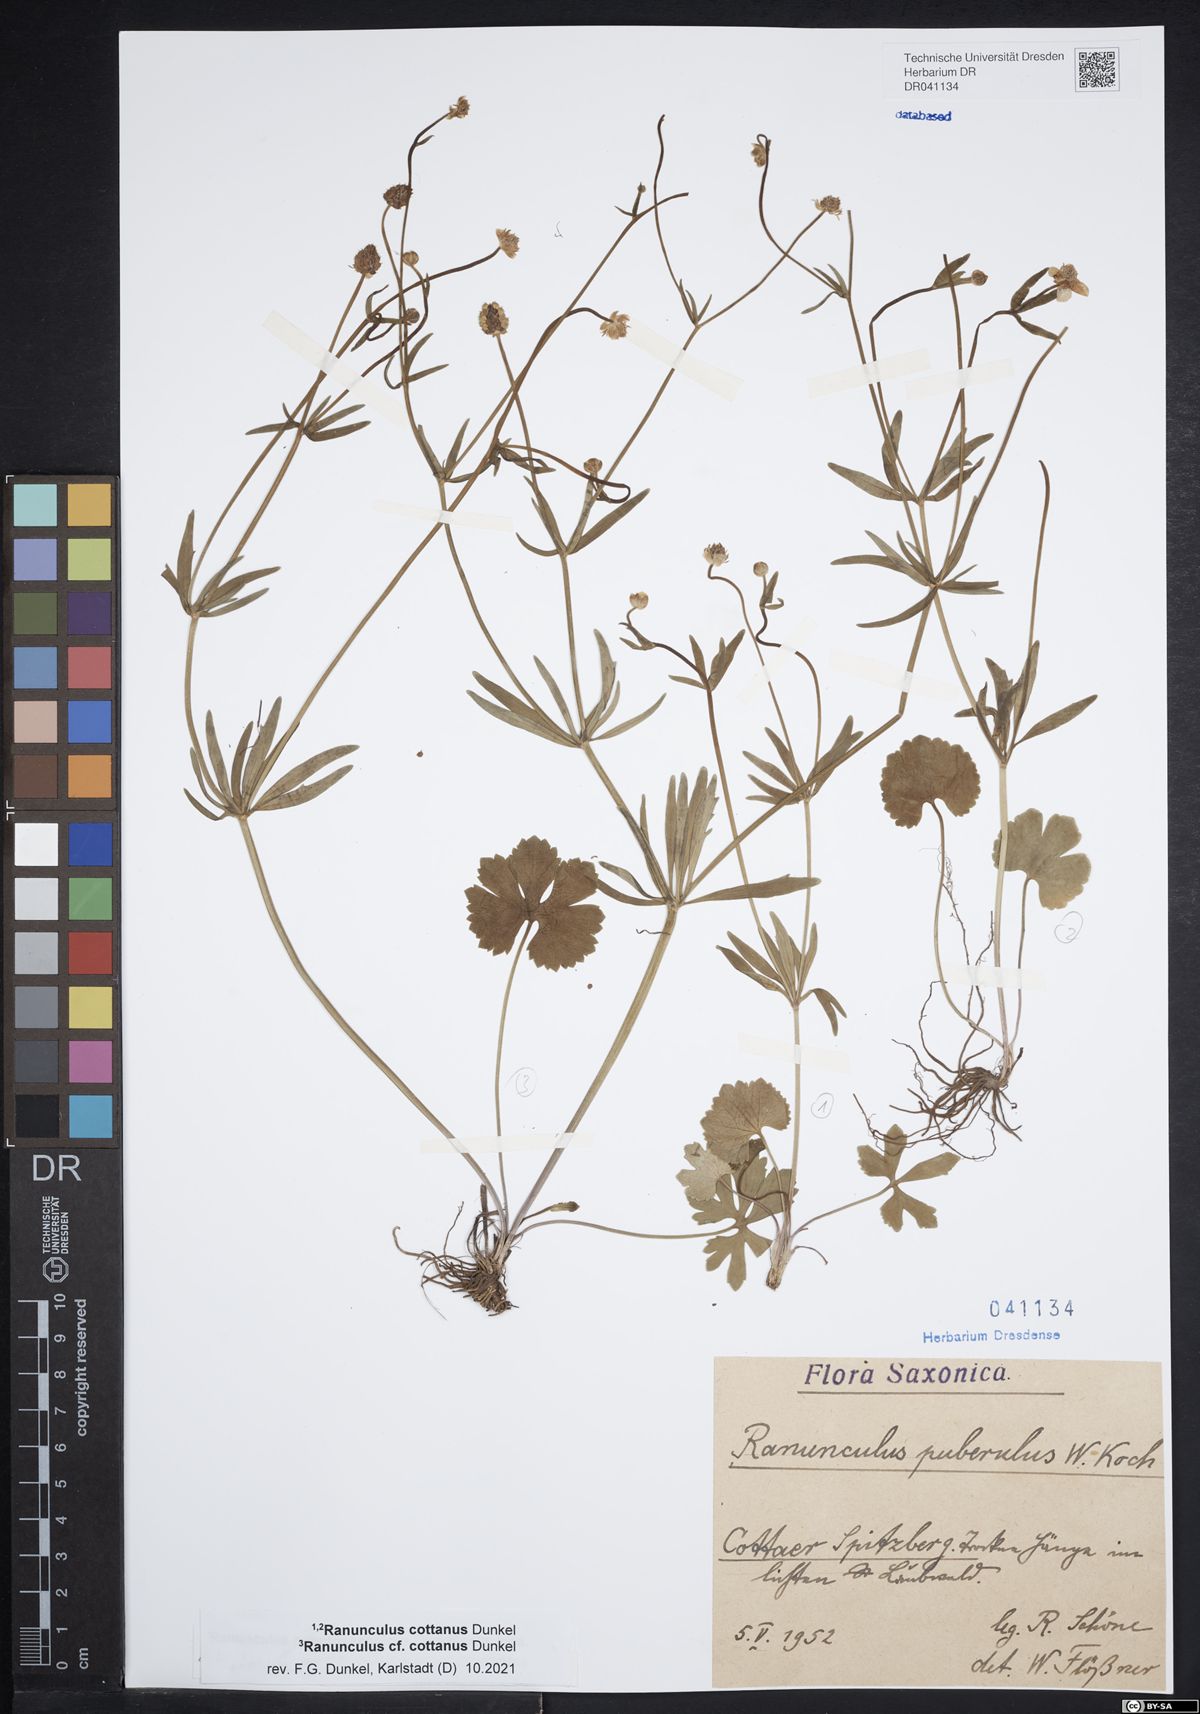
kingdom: Plantae
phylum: Tracheophyta
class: Magnoliopsida
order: Ranunculales
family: Ranunculaceae
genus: Ranunculus
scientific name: Ranunculus cottanus
